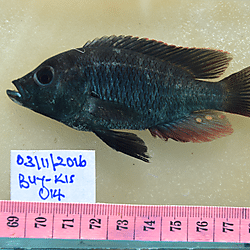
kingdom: Animalia
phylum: Chordata
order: Perciformes
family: Cichlidae
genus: Haplochromis
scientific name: Haplochromis macrocephalus
